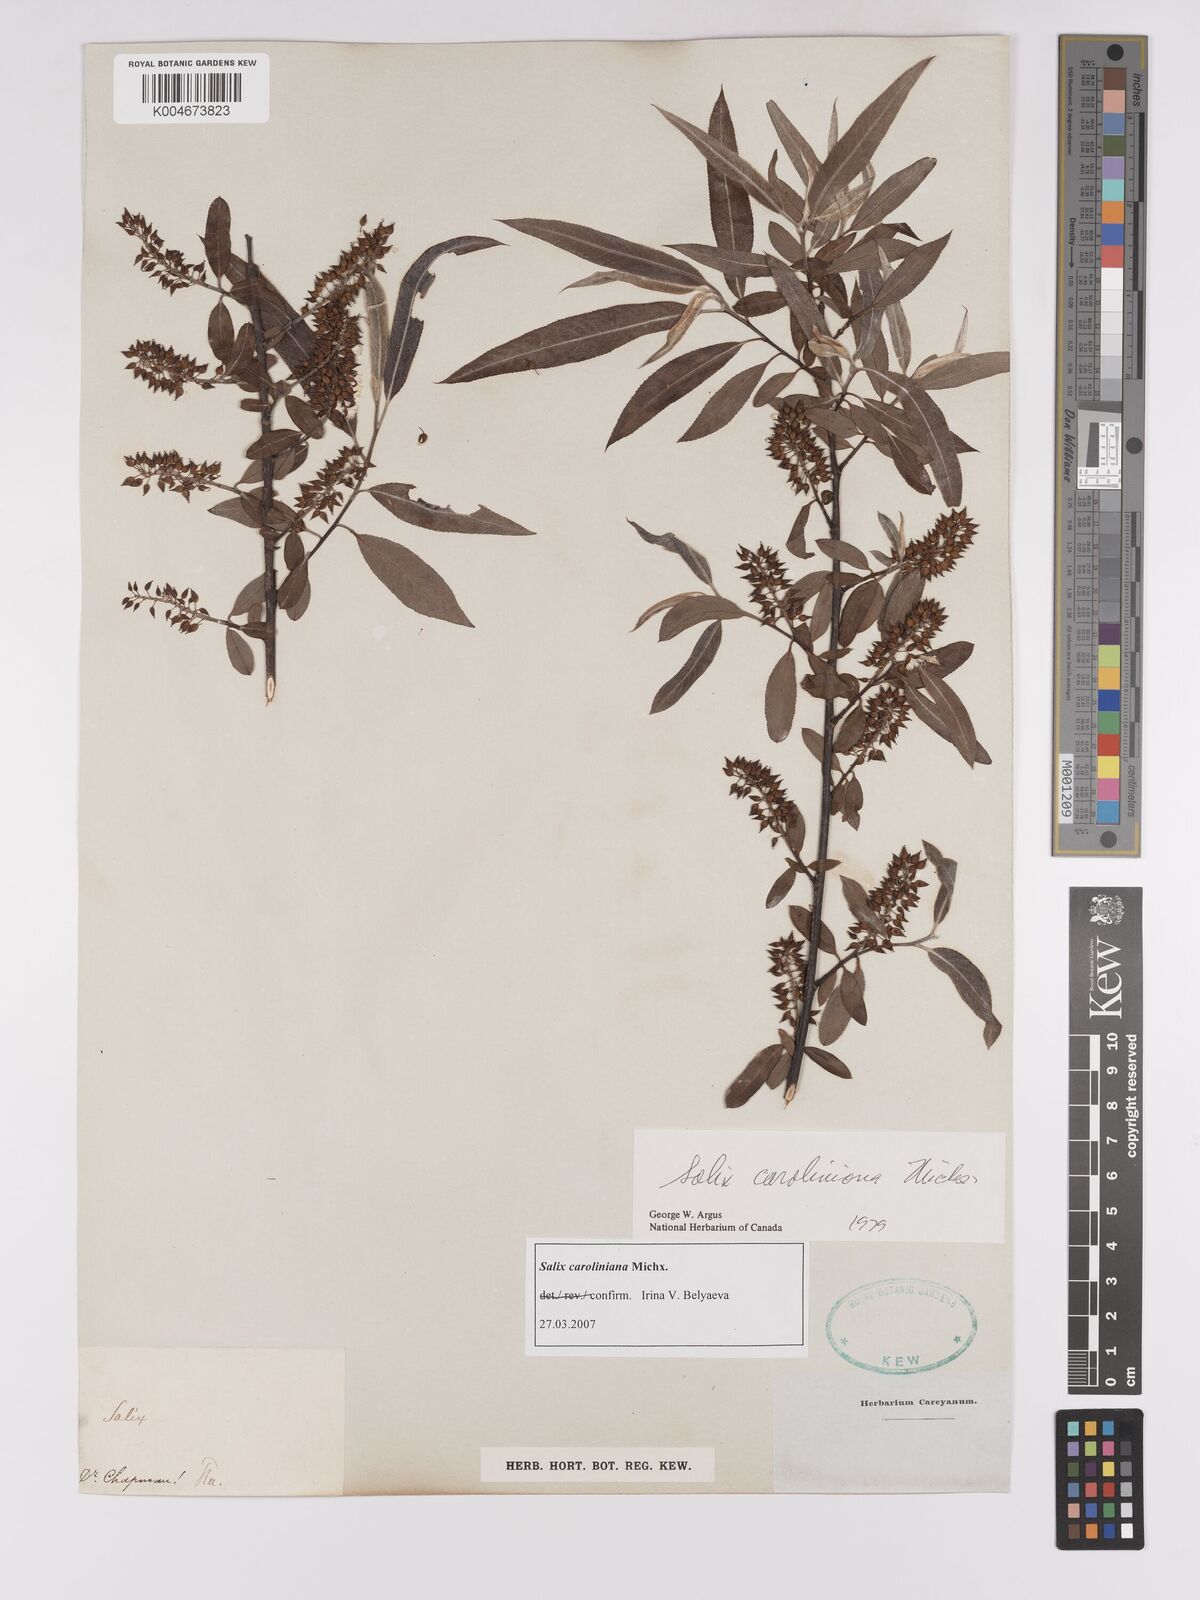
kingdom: Plantae
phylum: Tracheophyta
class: Magnoliopsida
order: Malpighiales
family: Salicaceae
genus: Salix
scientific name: Salix caroliniana
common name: Carolina willow
